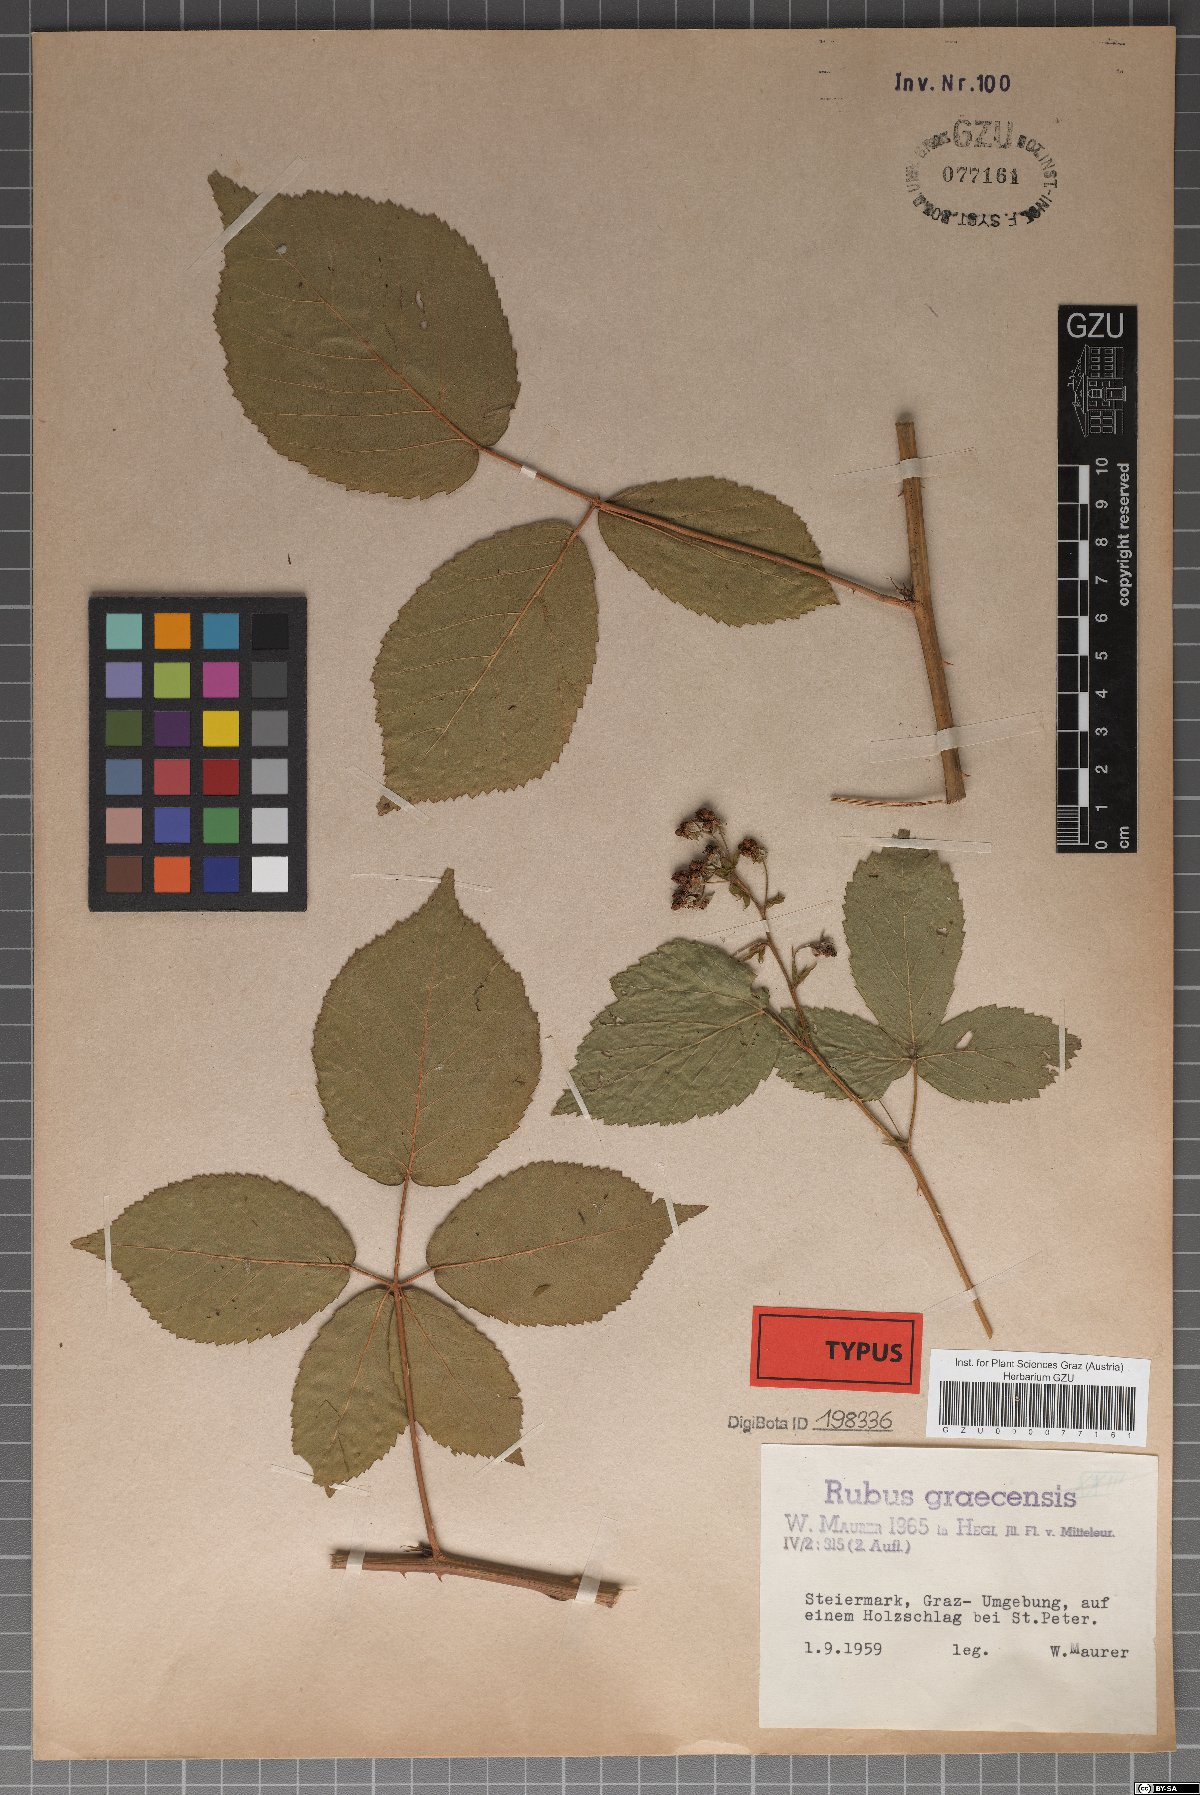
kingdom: Plantae
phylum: Tracheophyta
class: Magnoliopsida
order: Rosales
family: Rosaceae
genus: Rubus
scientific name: Rubus graecensis
